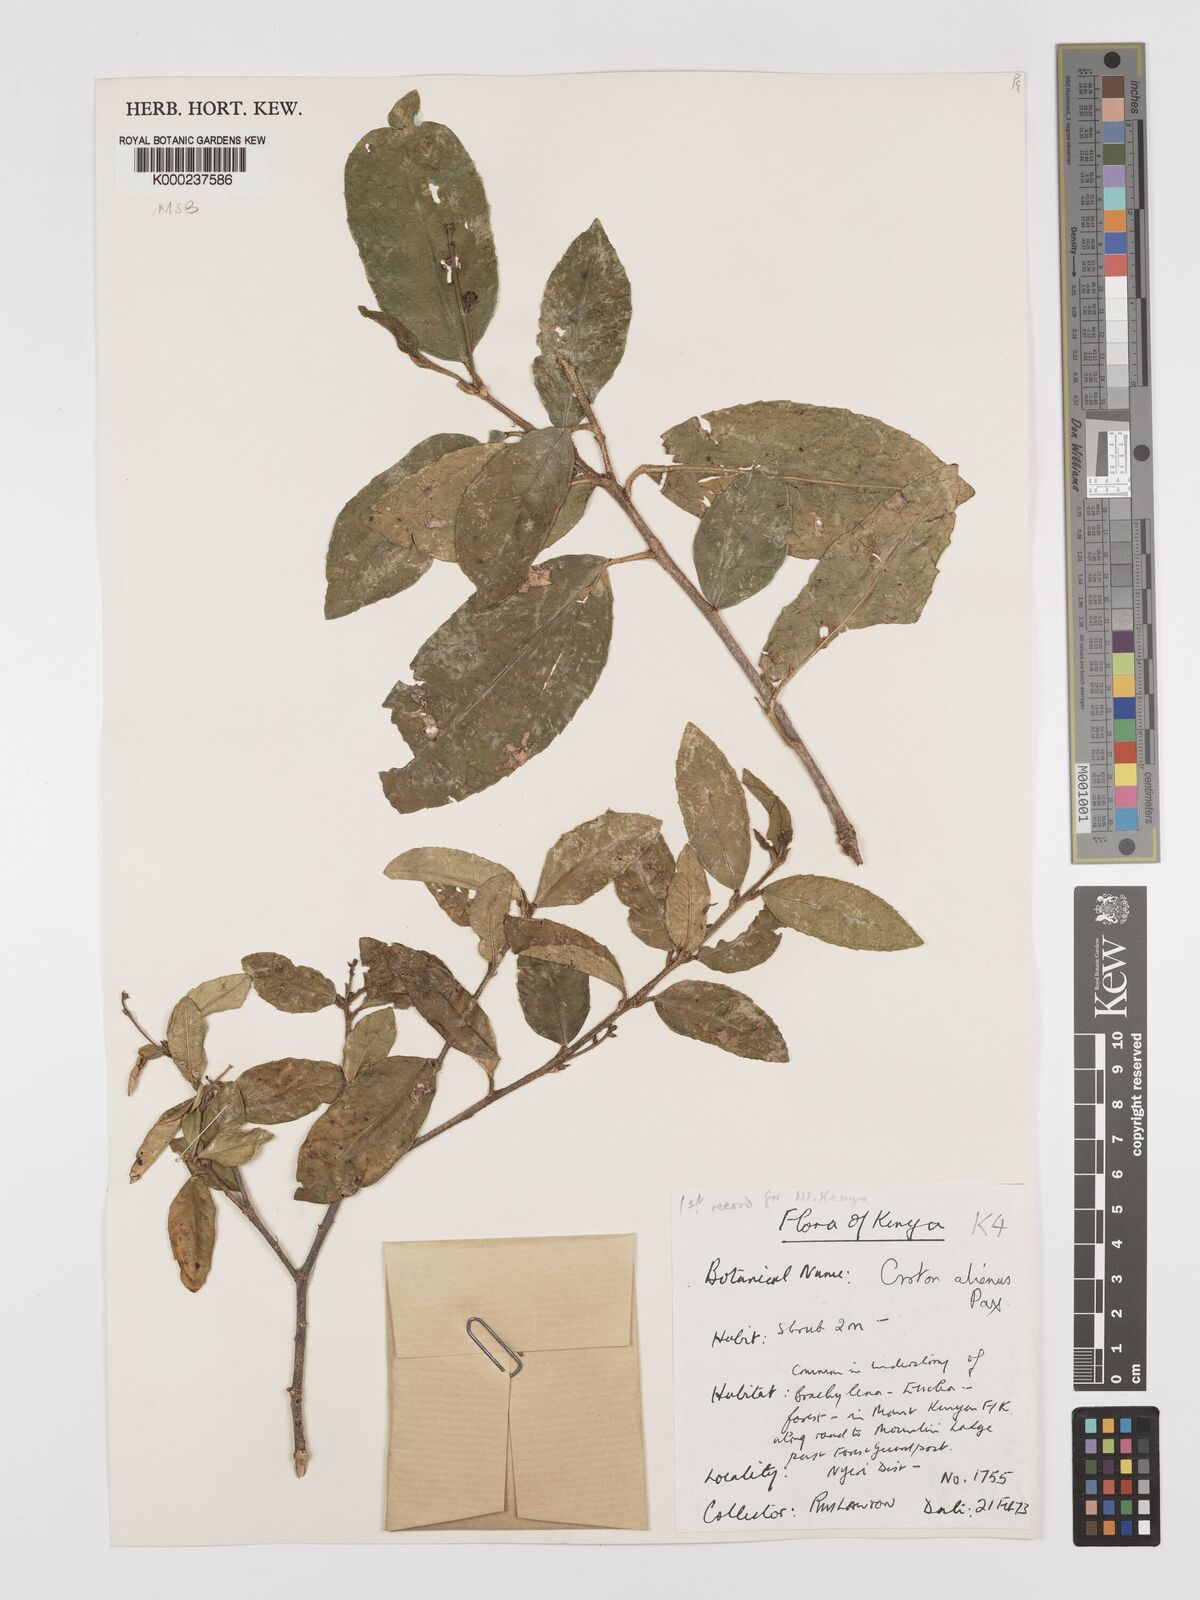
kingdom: Plantae
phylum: Tracheophyta
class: Magnoliopsida
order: Malpighiales
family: Euphorbiaceae
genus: Croton
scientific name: Croton alienus
